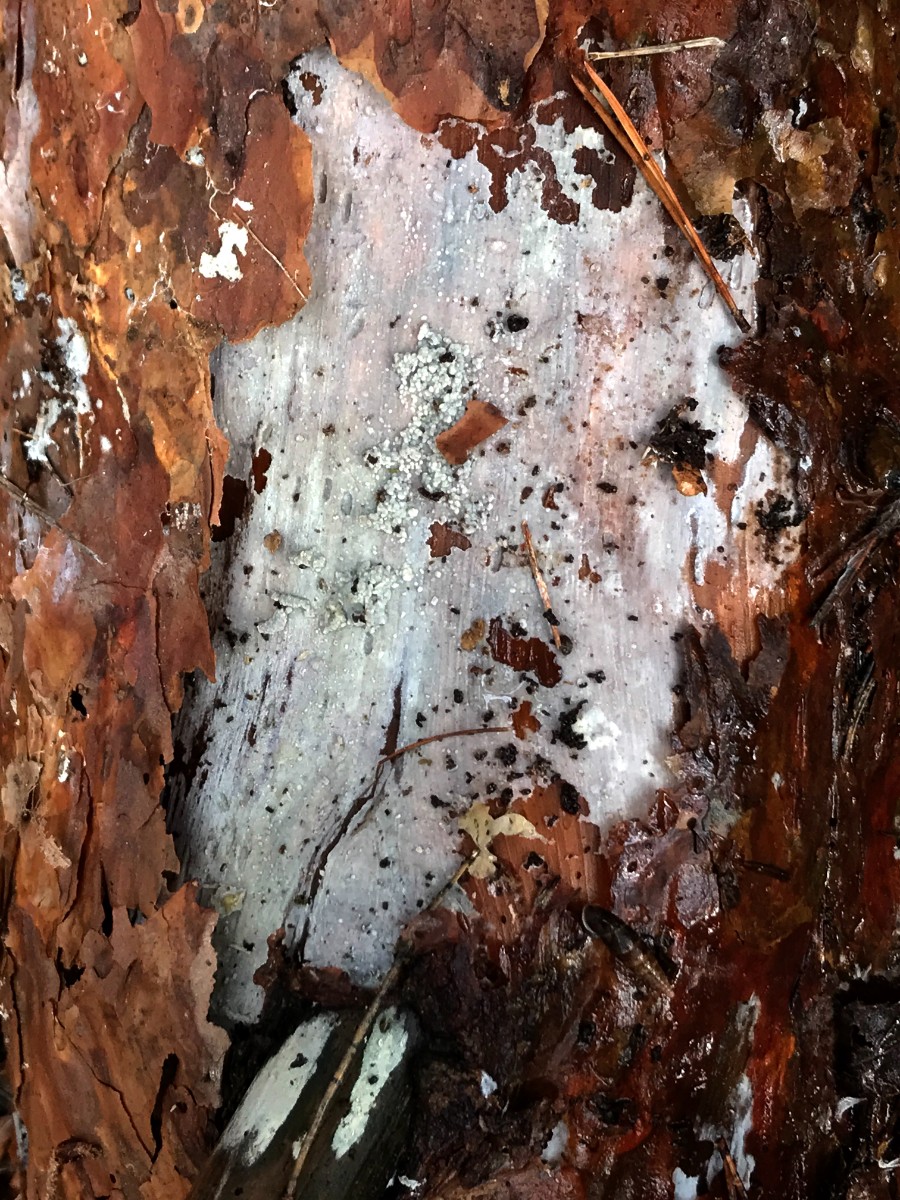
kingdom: Fungi
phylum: Basidiomycota
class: Agaricomycetes
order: Corticiales
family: Corticiaceae
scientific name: Corticiaceae
